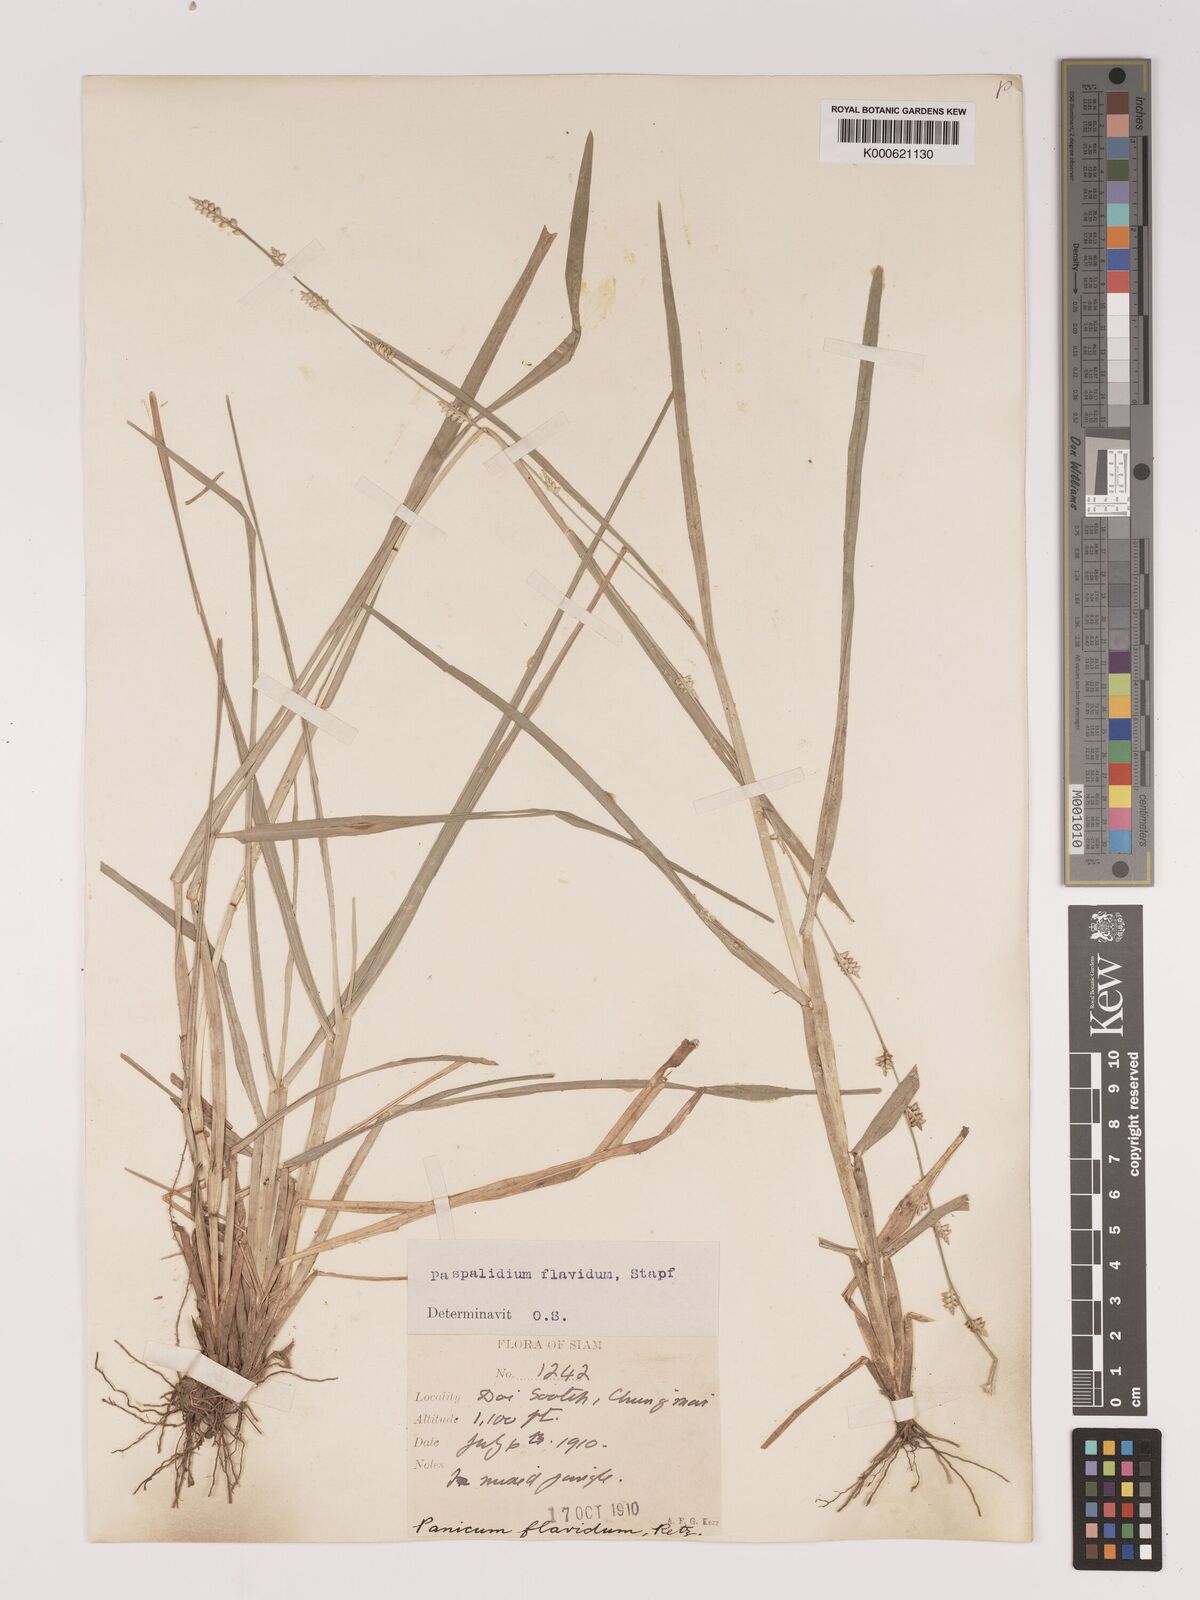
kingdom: Plantae
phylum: Tracheophyta
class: Liliopsida
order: Poales
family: Poaceae
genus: Setaria
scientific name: Setaria flavida
